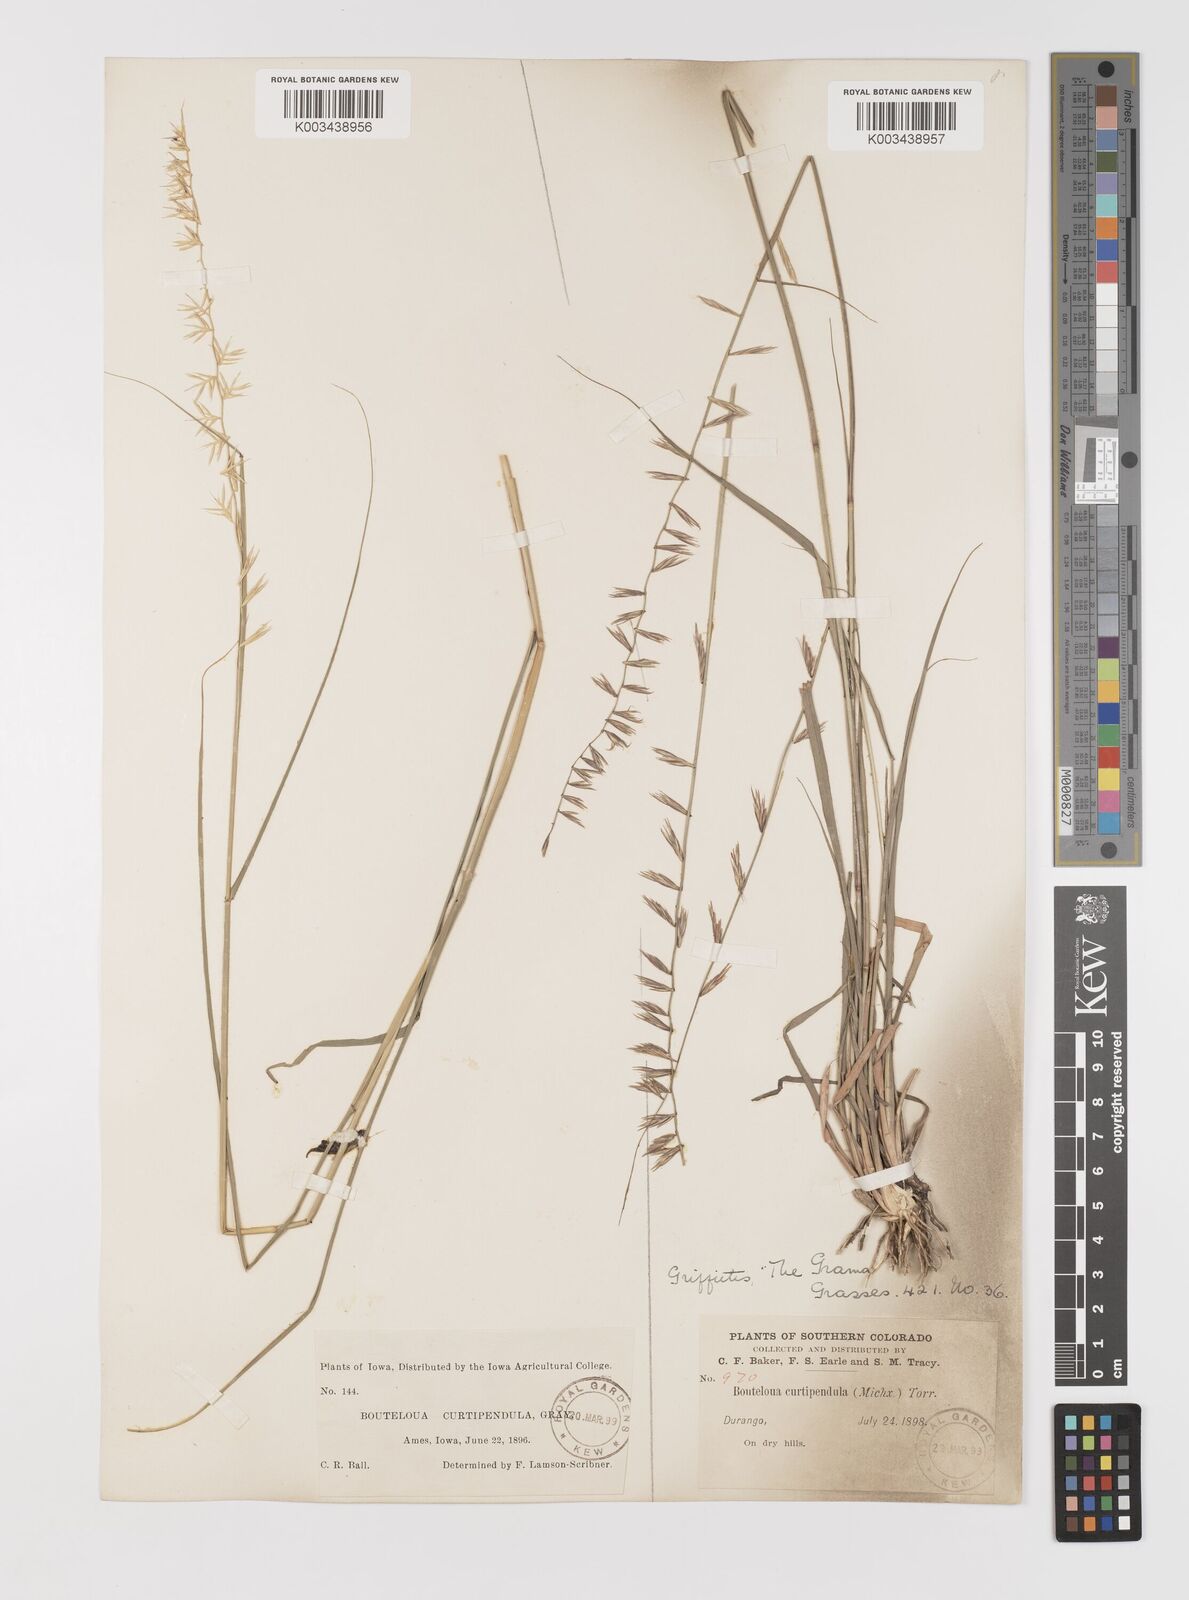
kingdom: Plantae
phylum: Tracheophyta
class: Liliopsida
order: Poales
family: Poaceae
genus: Bouteloua
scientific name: Bouteloua curtipendula
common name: Side-oats grama
